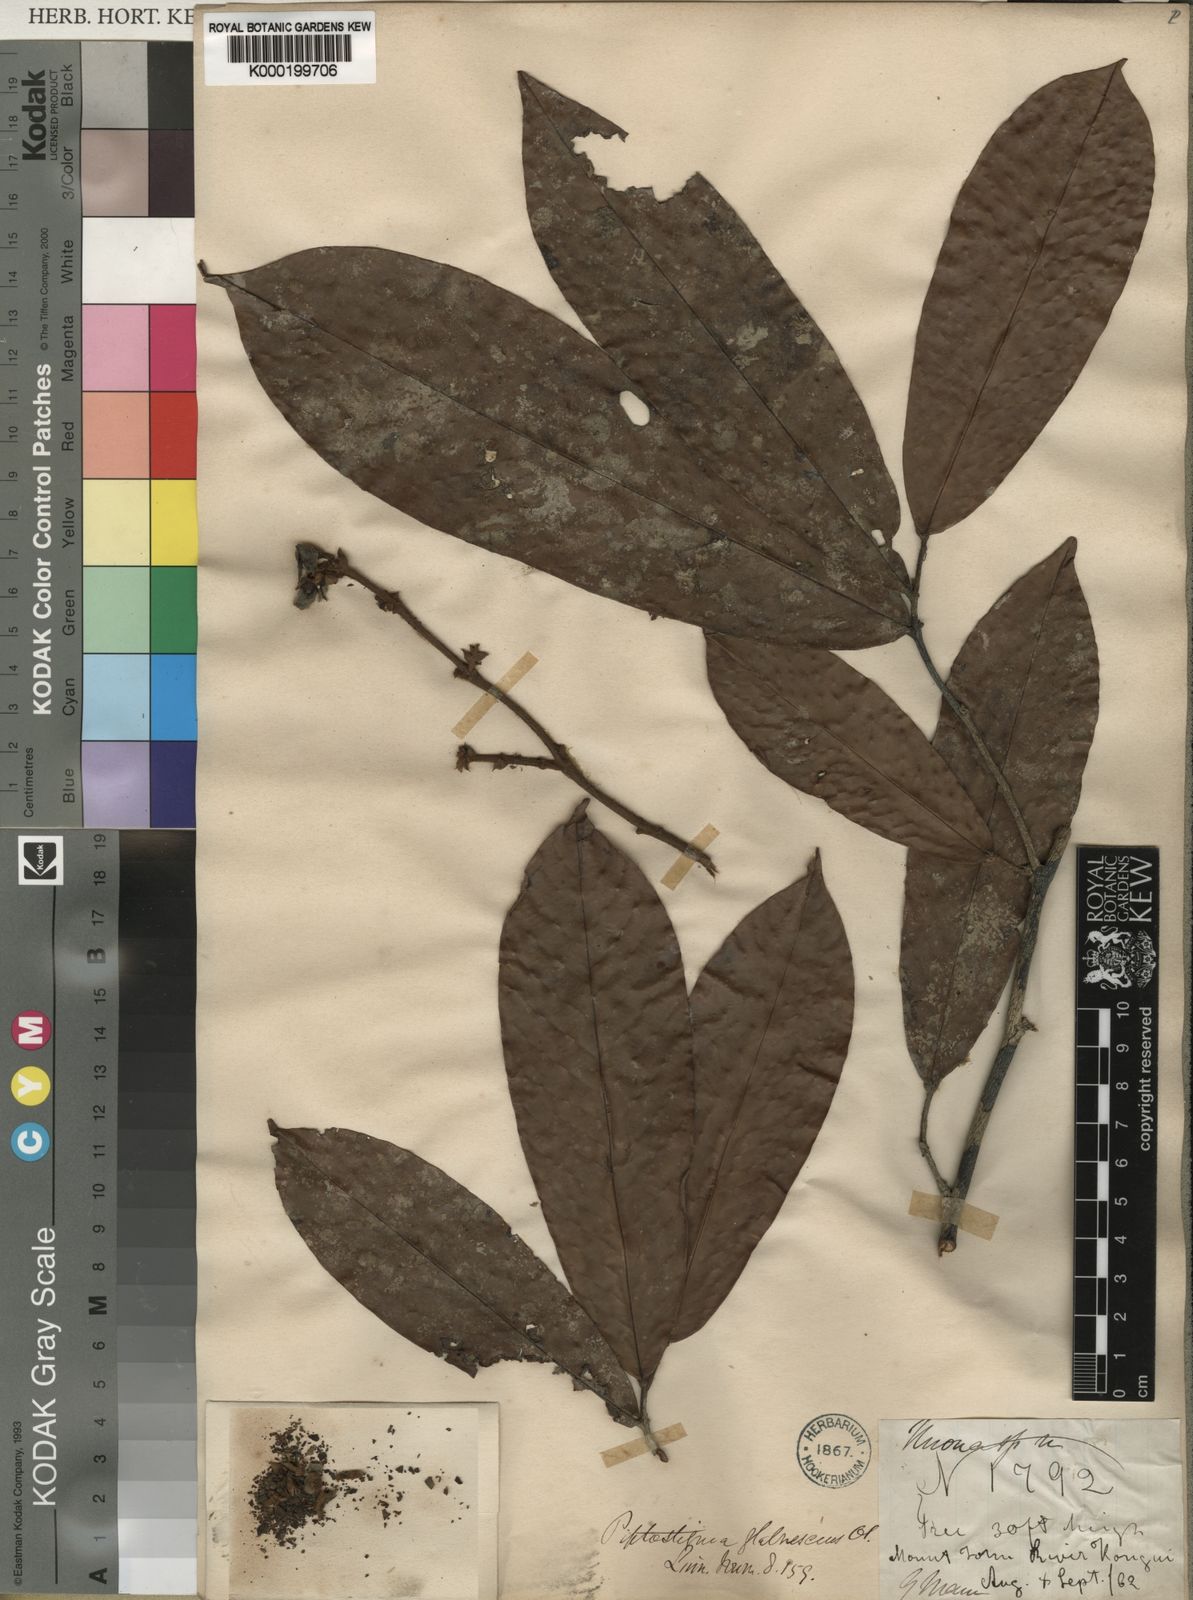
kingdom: Plantae
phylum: Tracheophyta
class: Magnoliopsida
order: Magnoliales
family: Annonaceae
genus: Piptostigma
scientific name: Piptostigma glabrescens
